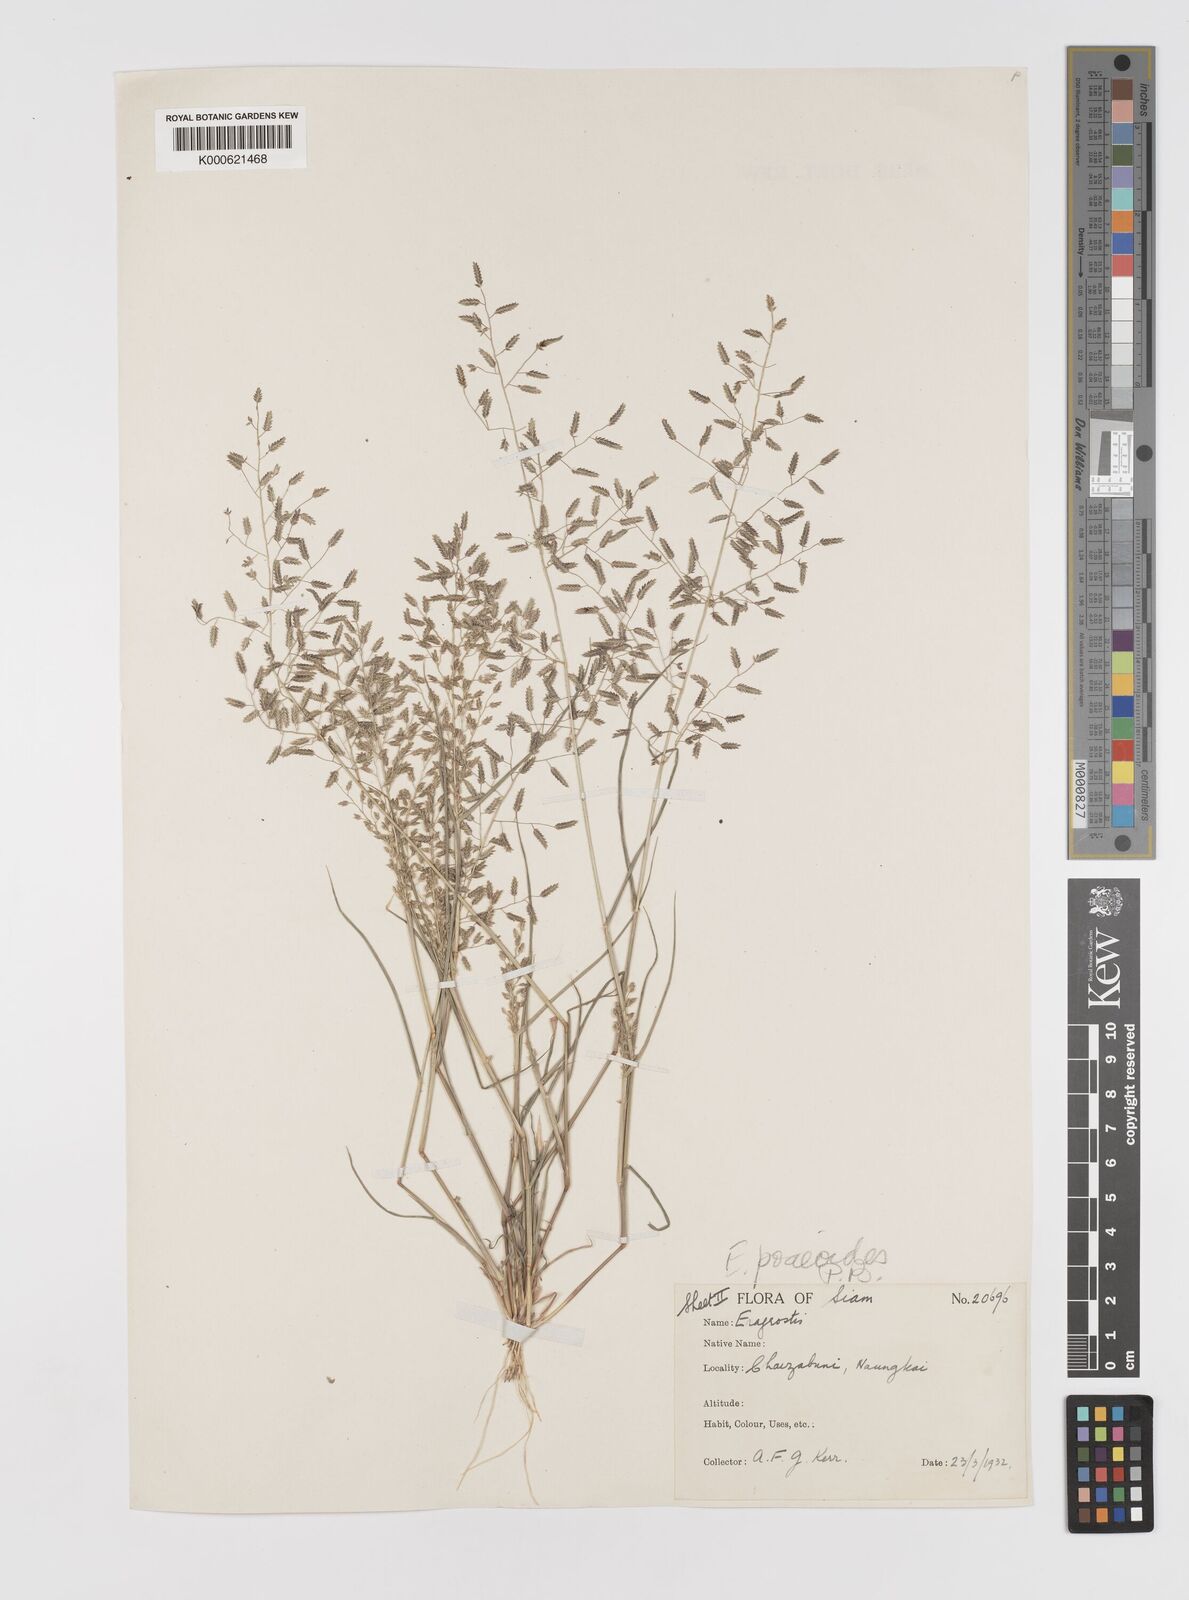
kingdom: Plantae
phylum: Tracheophyta
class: Liliopsida
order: Poales
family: Poaceae
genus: Eragrostis
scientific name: Eragrostis minor
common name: Small love-grass
